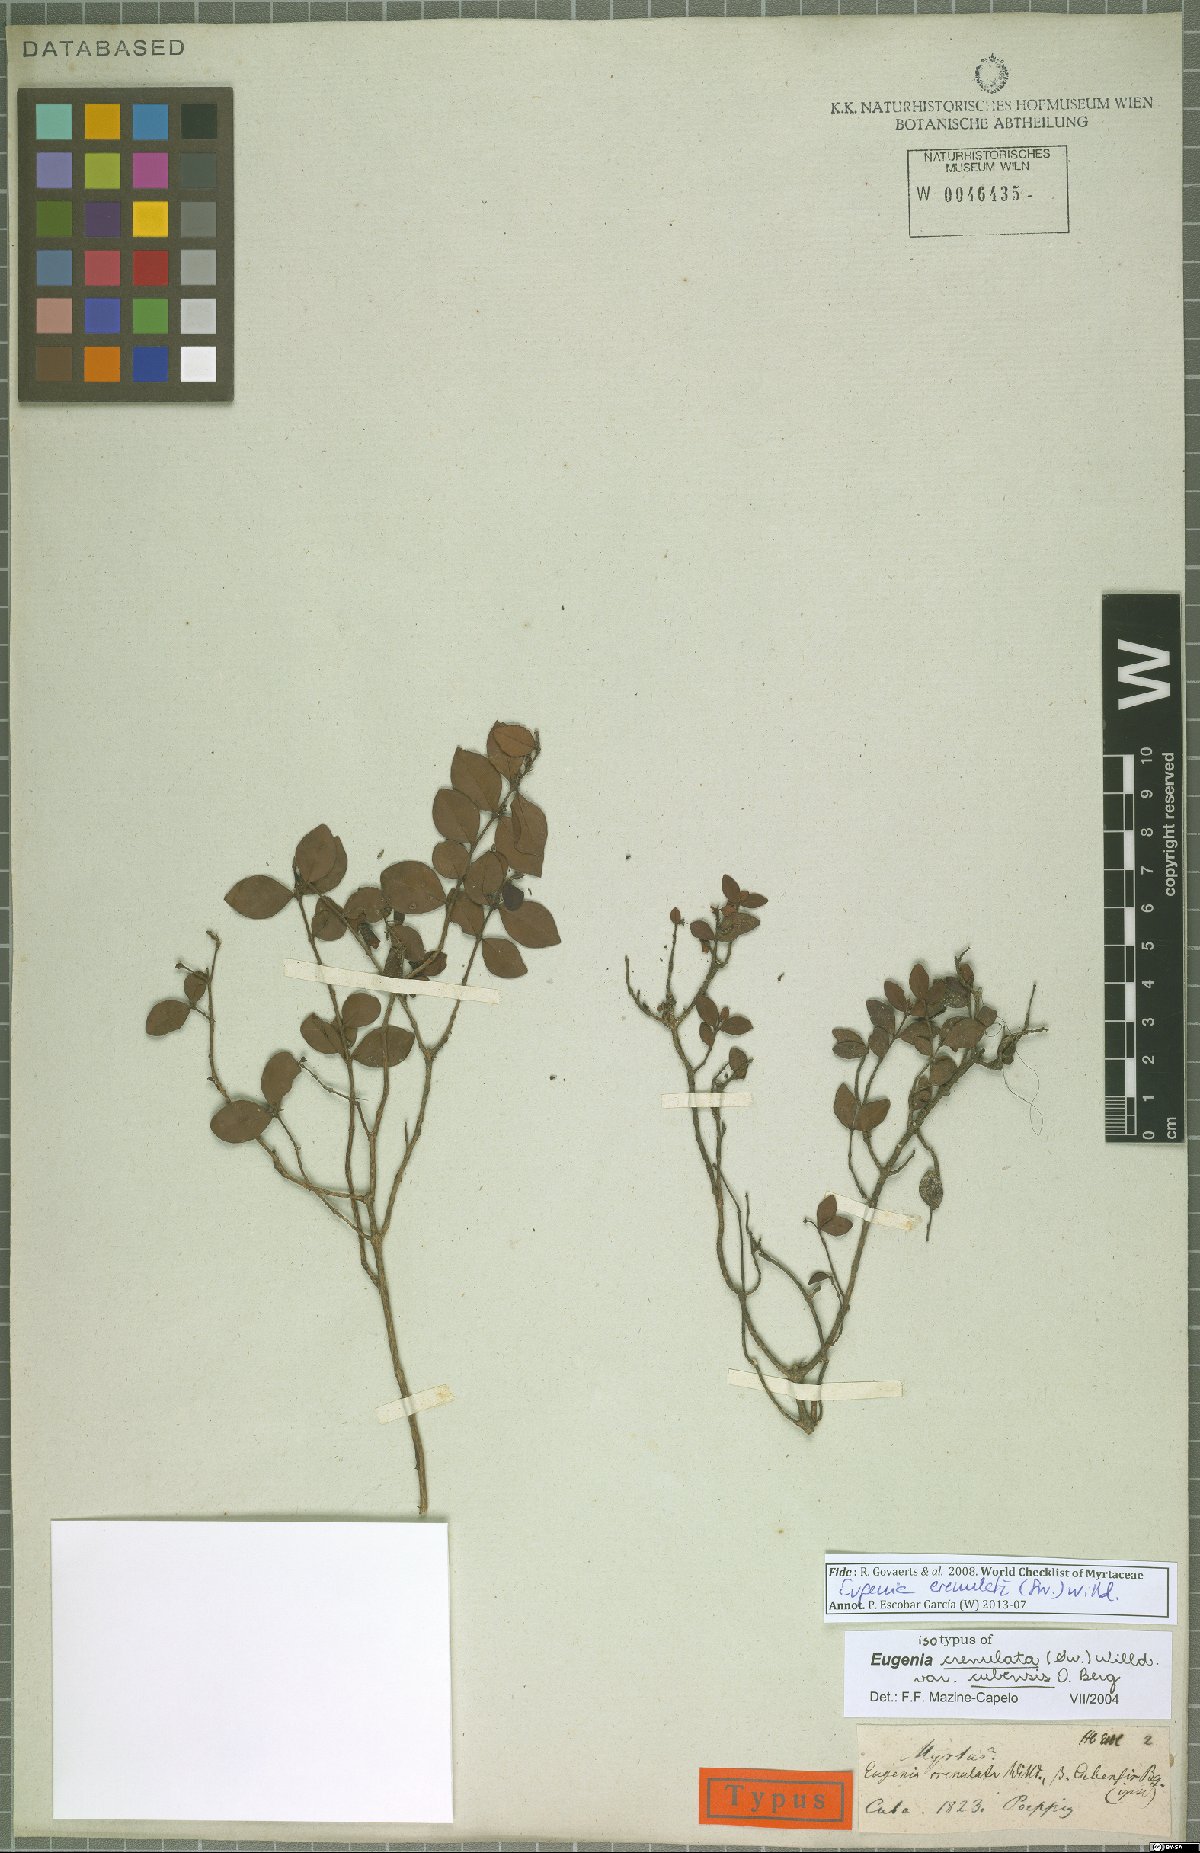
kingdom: Plantae
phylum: Tracheophyta
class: Magnoliopsida
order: Myrtales
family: Myrtaceae
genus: Eugenia
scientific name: Eugenia crenulata
